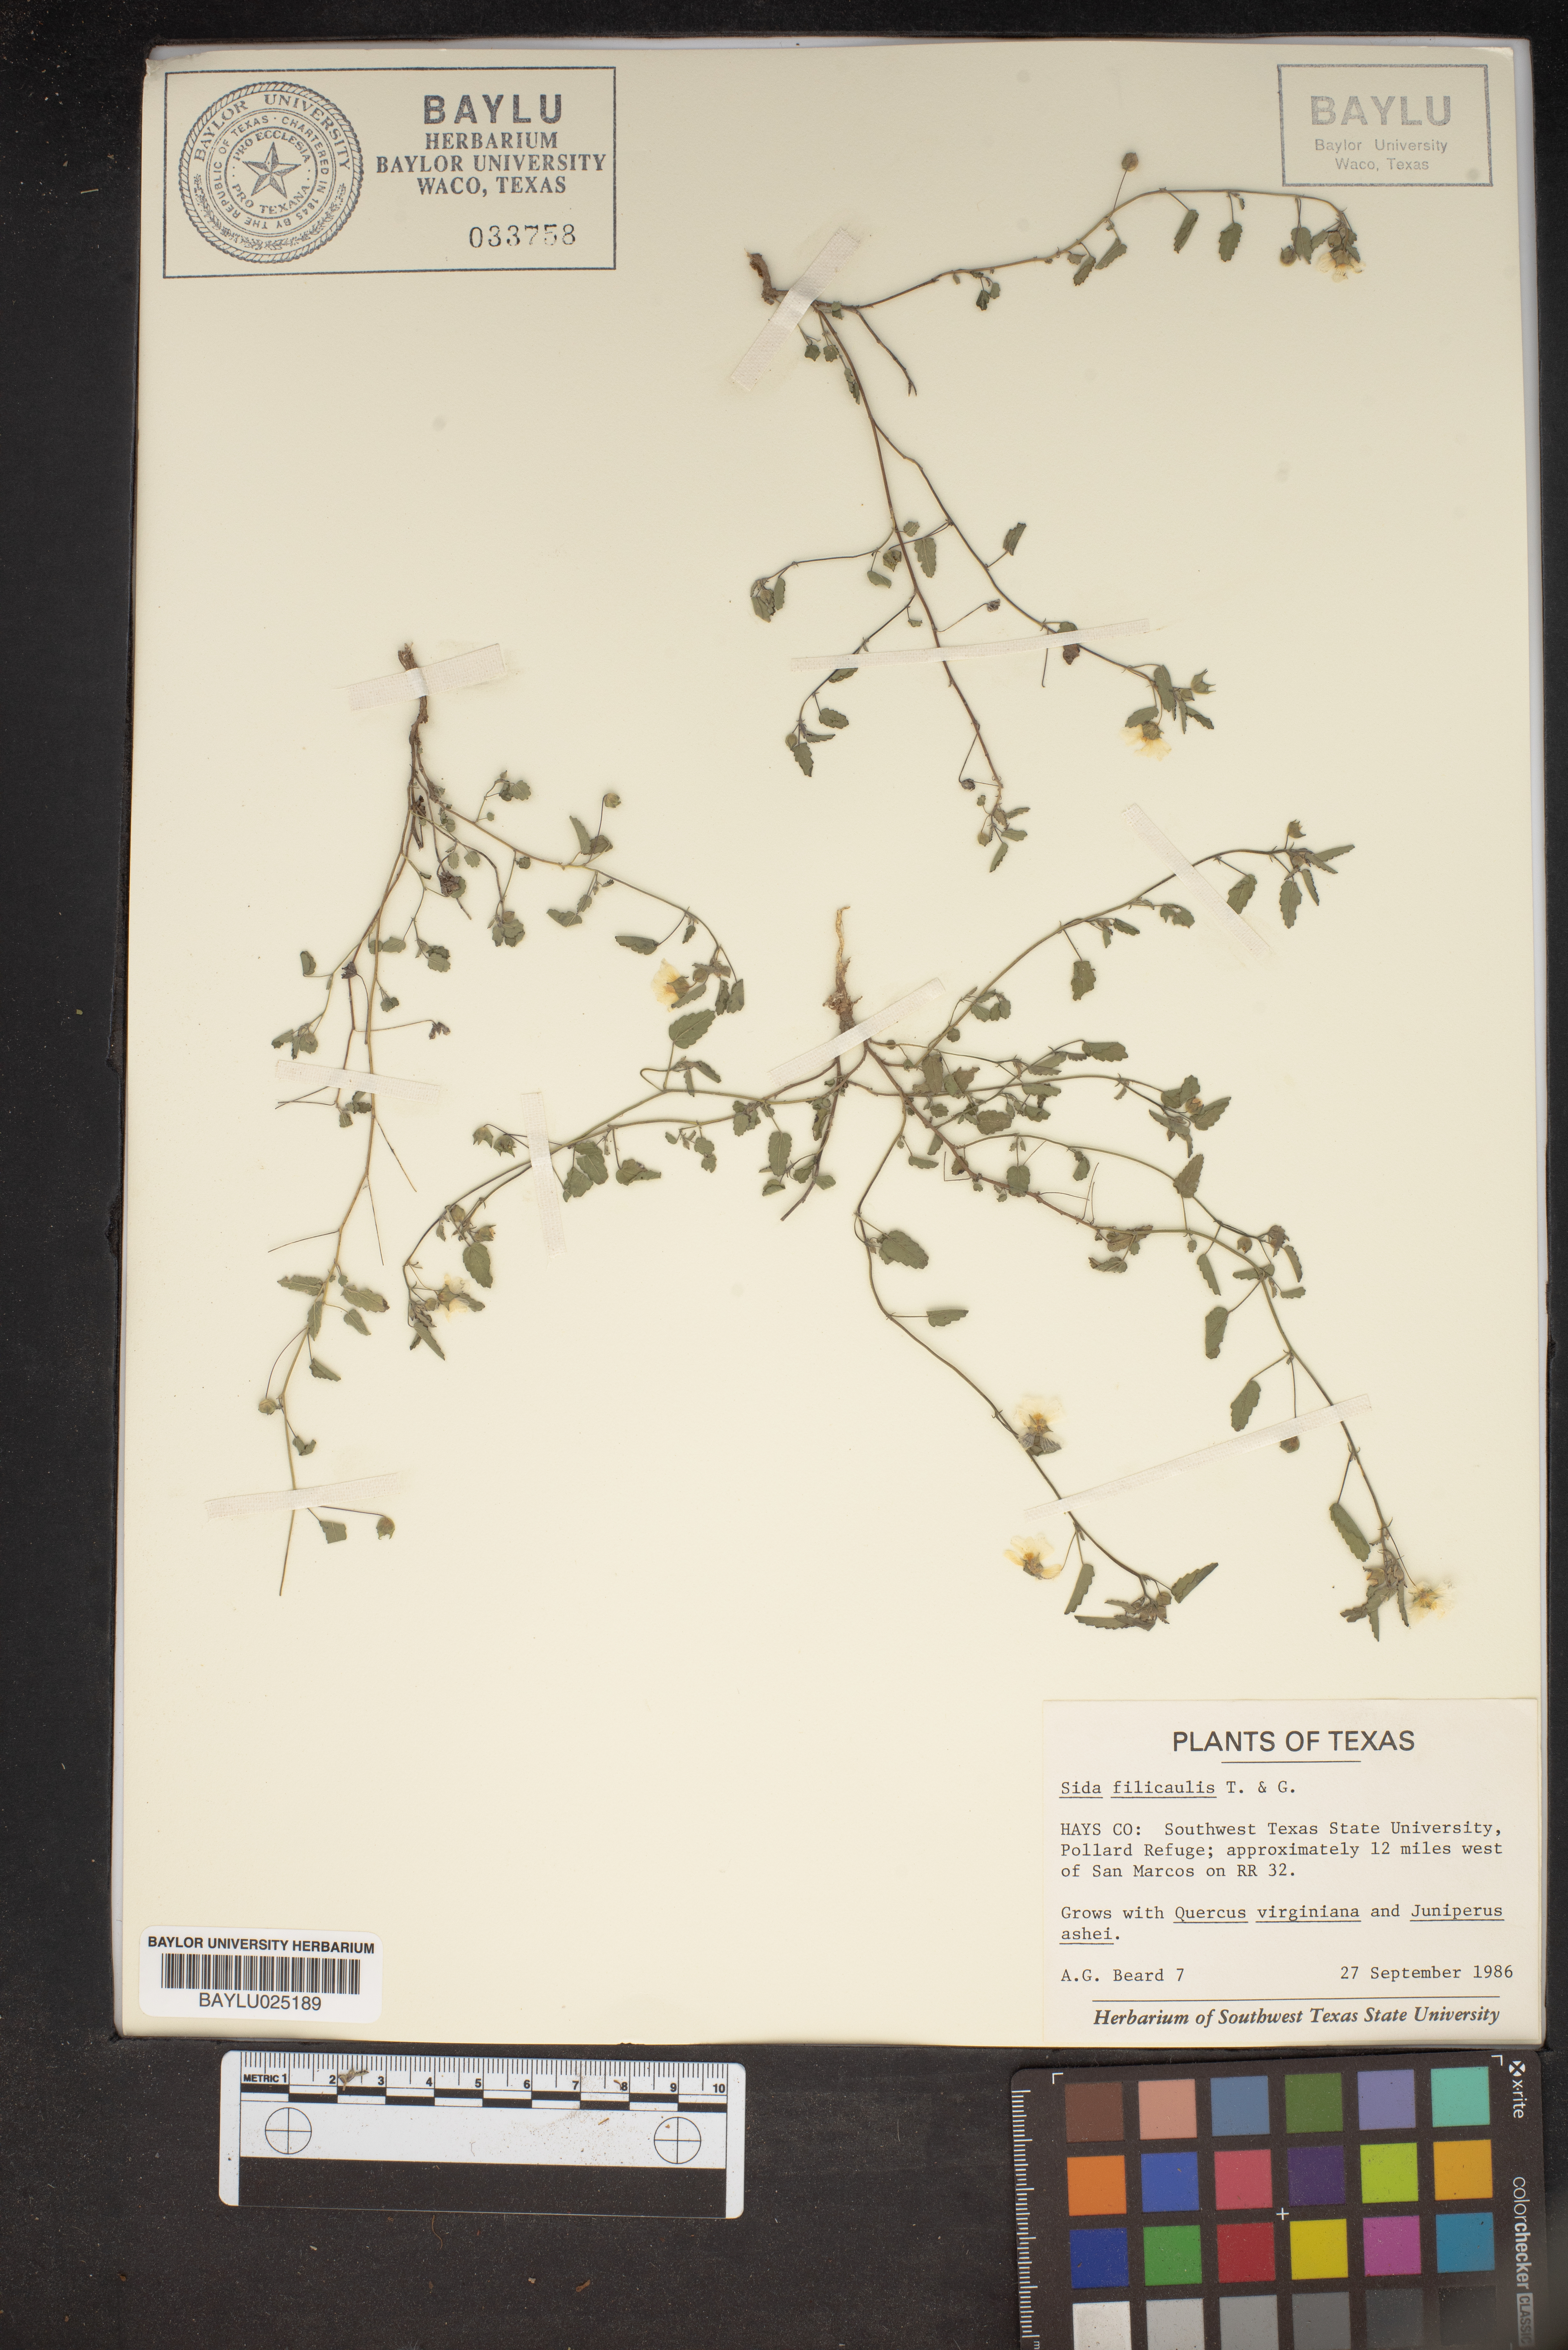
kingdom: Plantae
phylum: Tracheophyta
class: Magnoliopsida
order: Malvales
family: Malvaceae
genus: Sida
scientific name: Sida abutilifolia
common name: Spreading fanpetals
